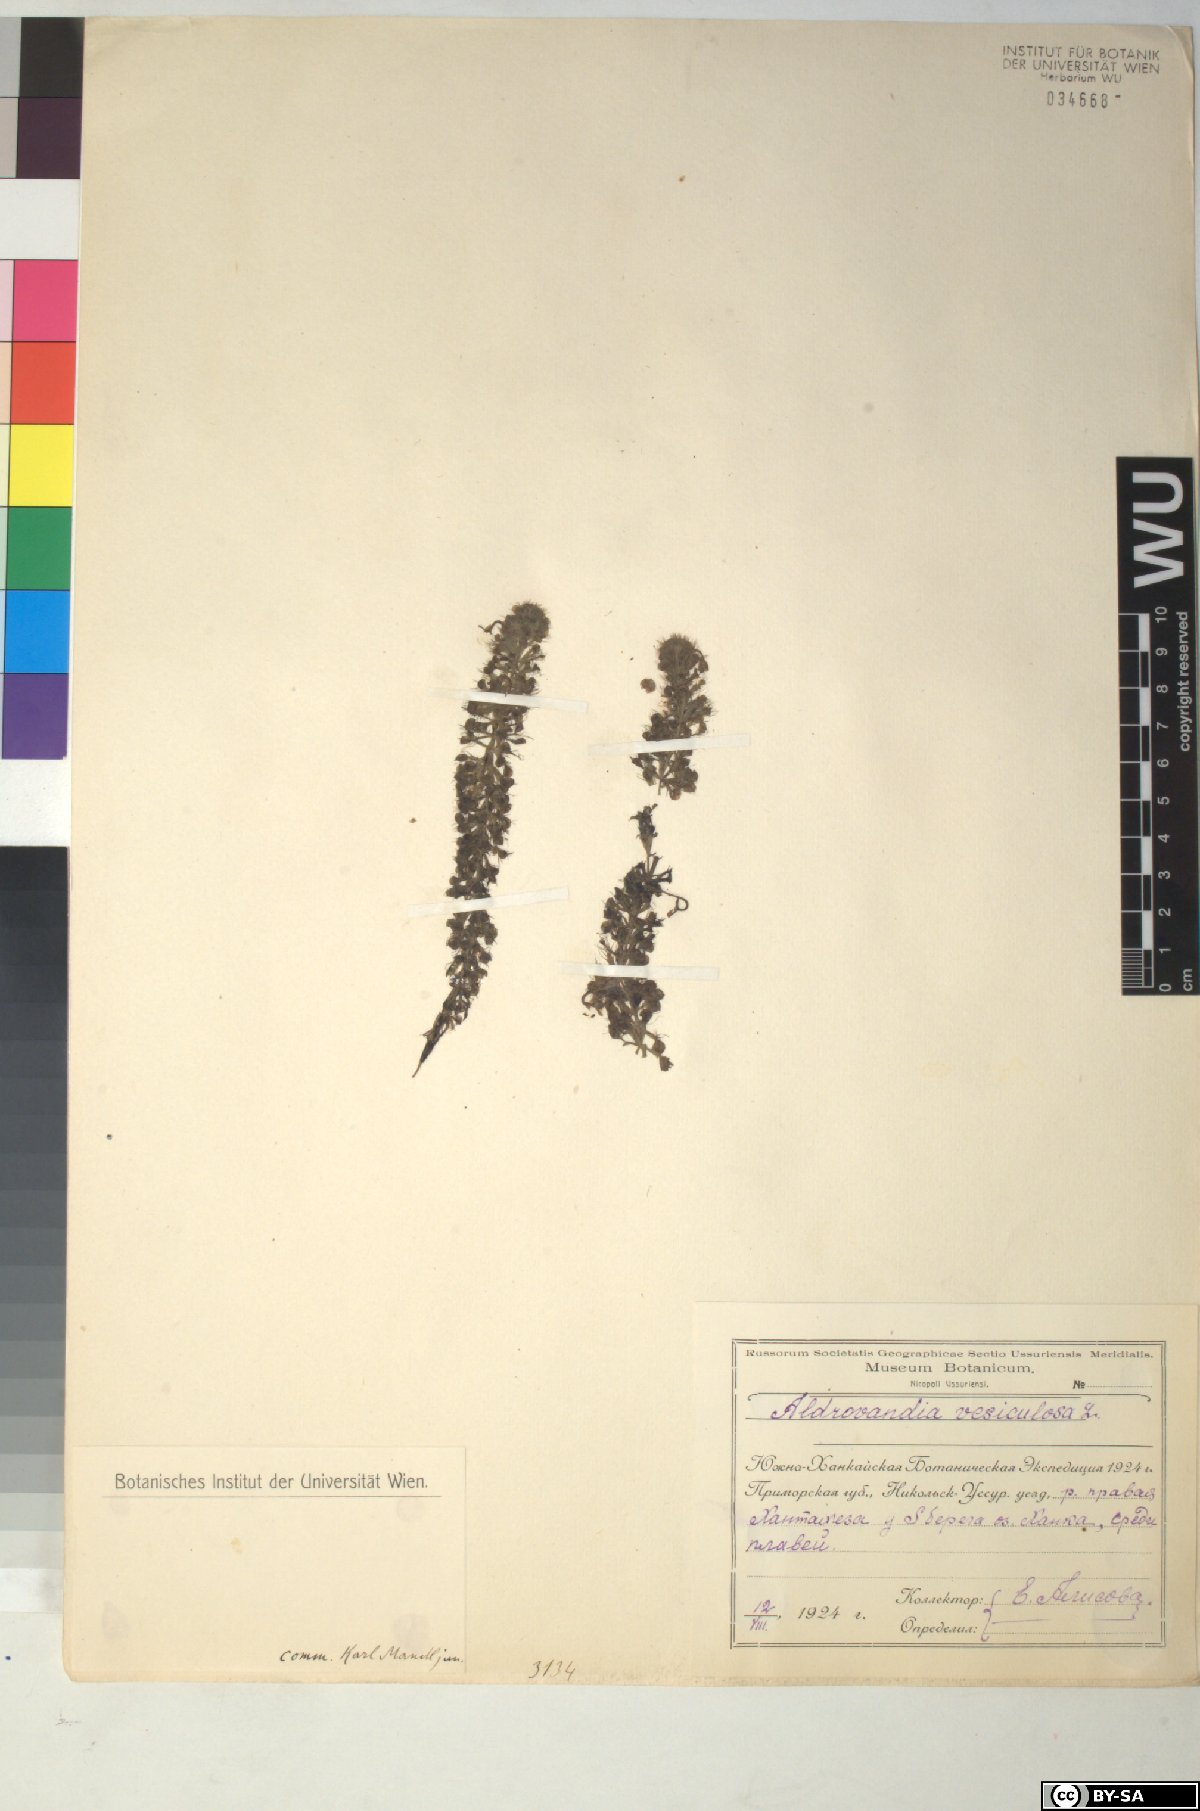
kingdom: Plantae
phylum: Tracheophyta
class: Magnoliopsida
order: Caryophyllales
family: Droseraceae
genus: Aldrovanda
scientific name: Aldrovanda vesiculosa
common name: Waterwheel plant
